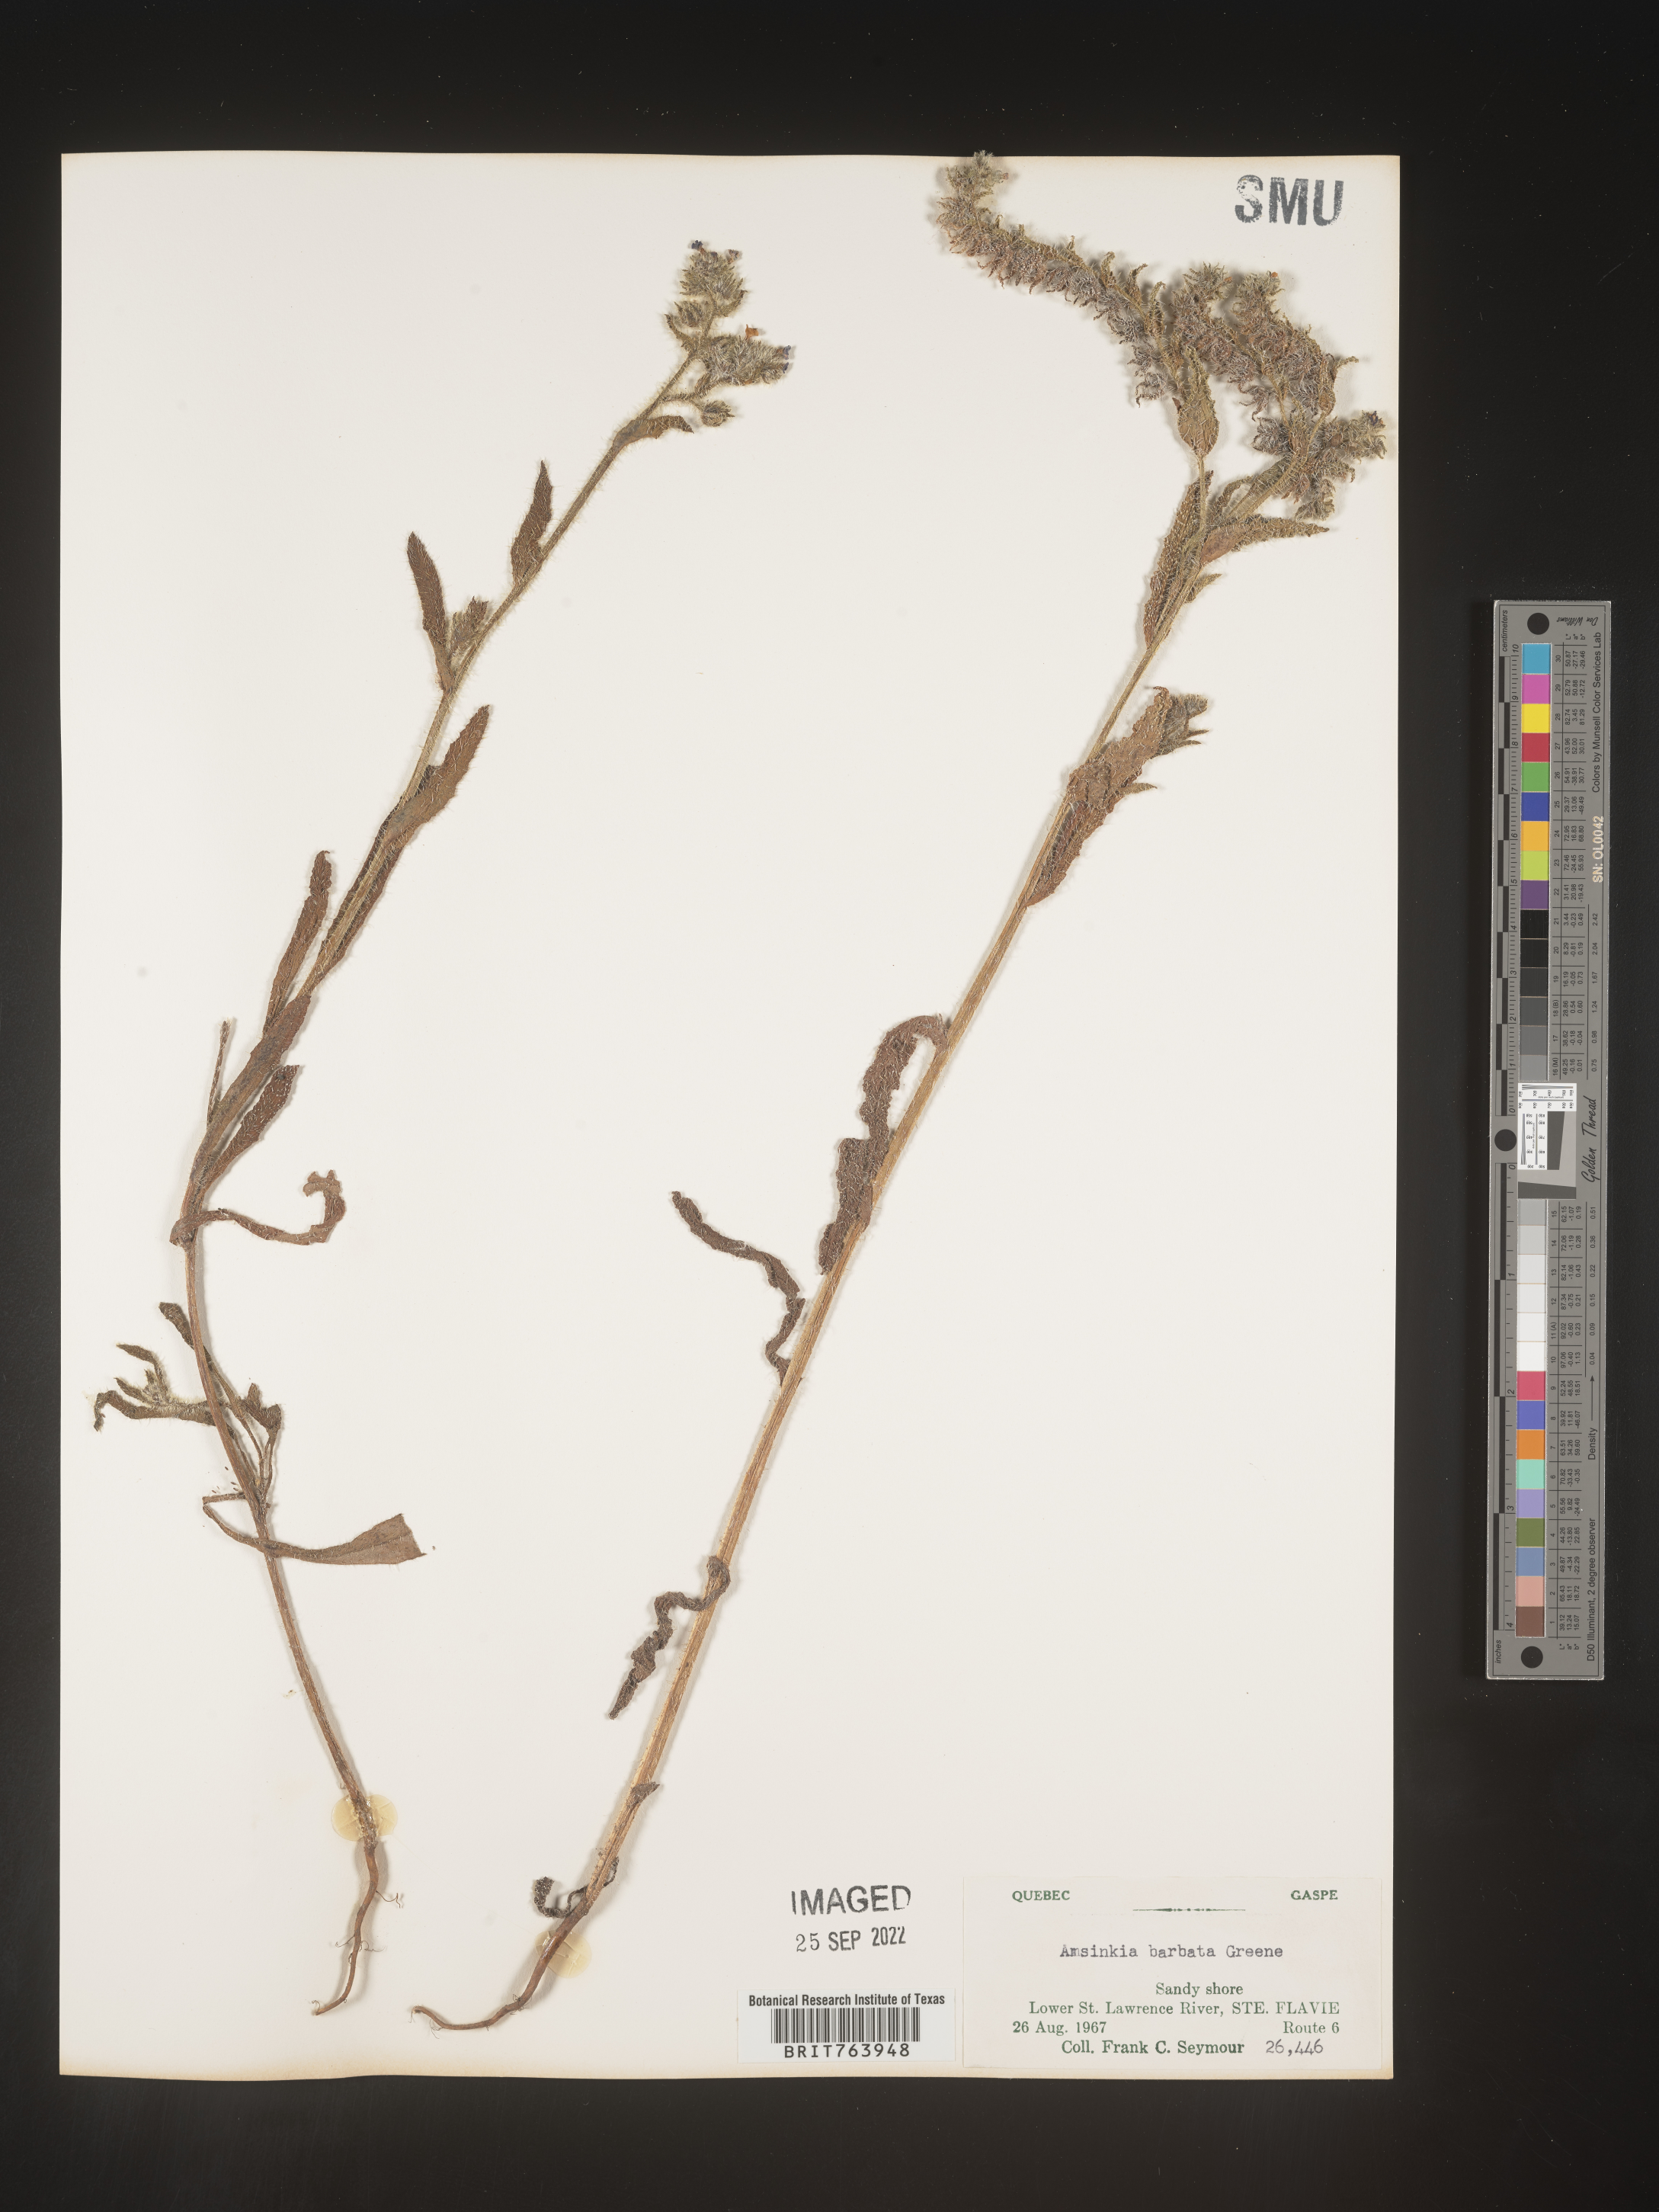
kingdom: Plantae
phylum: Tracheophyta
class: Magnoliopsida
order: Boraginales
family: Boraginaceae
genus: Amsinckia
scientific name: Amsinckia
